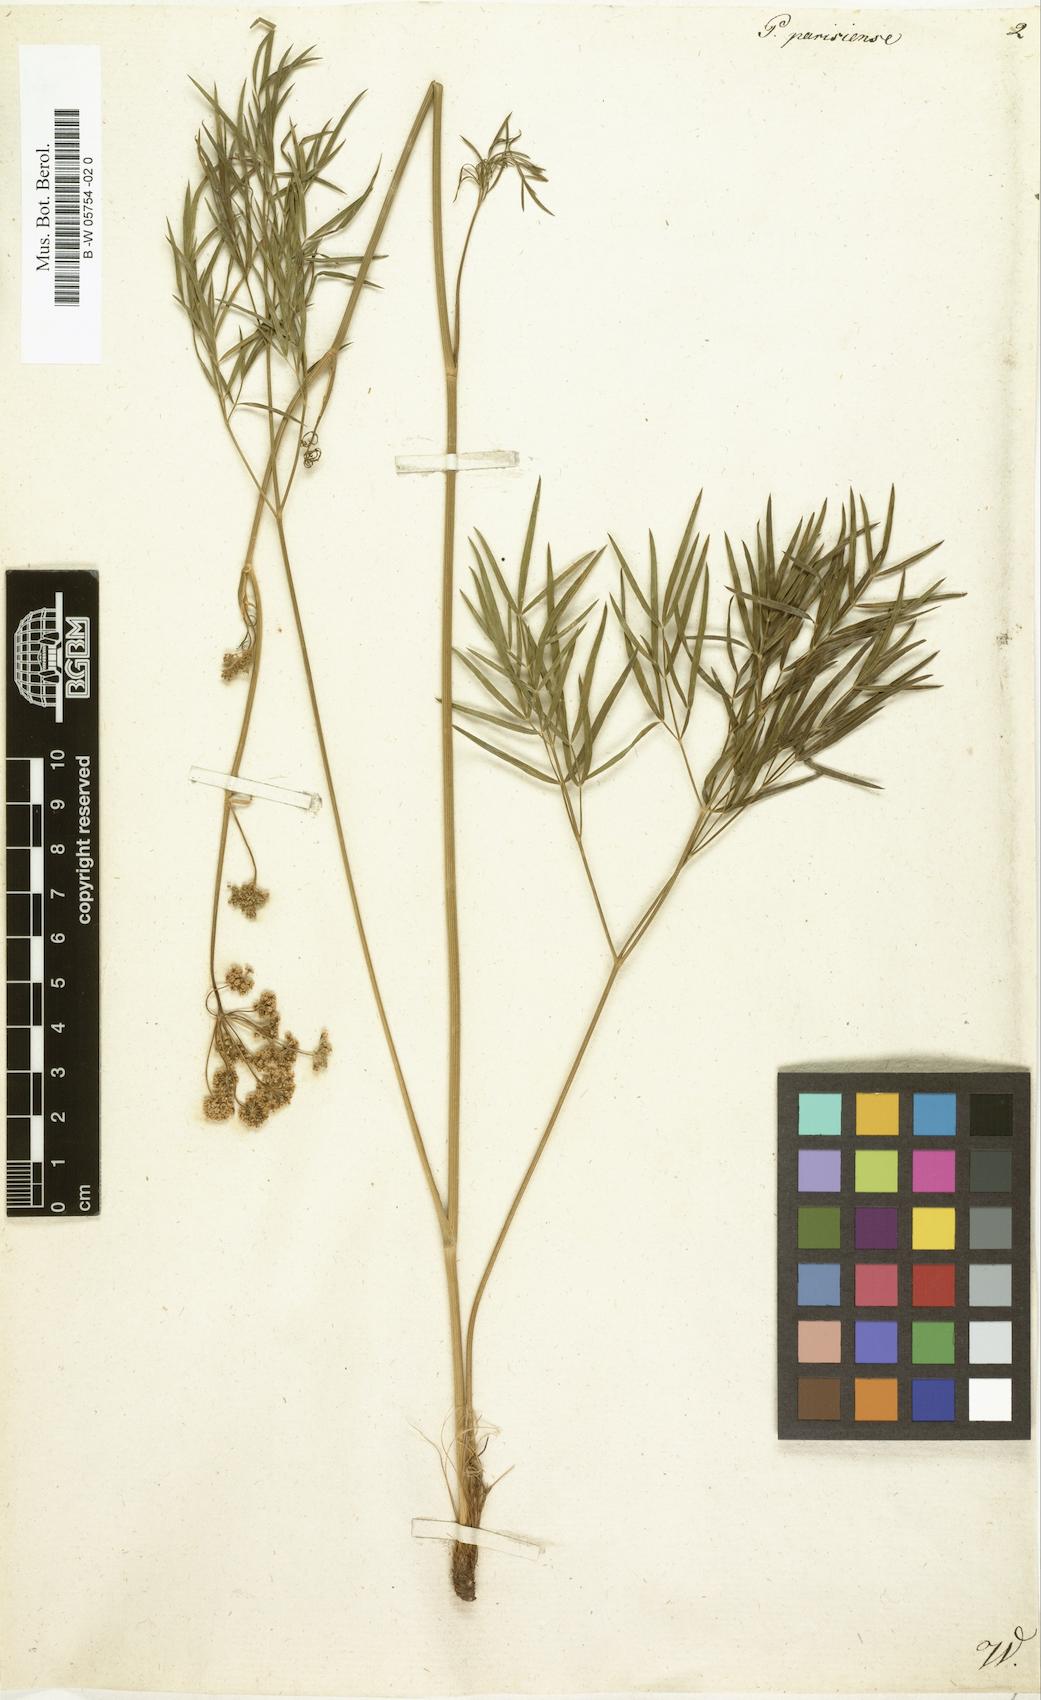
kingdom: Plantae
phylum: Tracheophyta
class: Magnoliopsida
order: Apiales
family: Apiaceae
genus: Peucedanum
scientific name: Peucedanum
